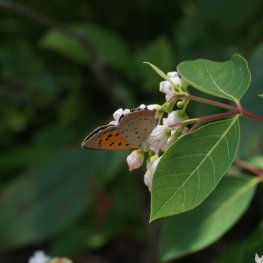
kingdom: Animalia
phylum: Arthropoda
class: Insecta
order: Lepidoptera
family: Lycaenidae
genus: Lycaena
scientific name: Lycaena phlaeas
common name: American Copper
